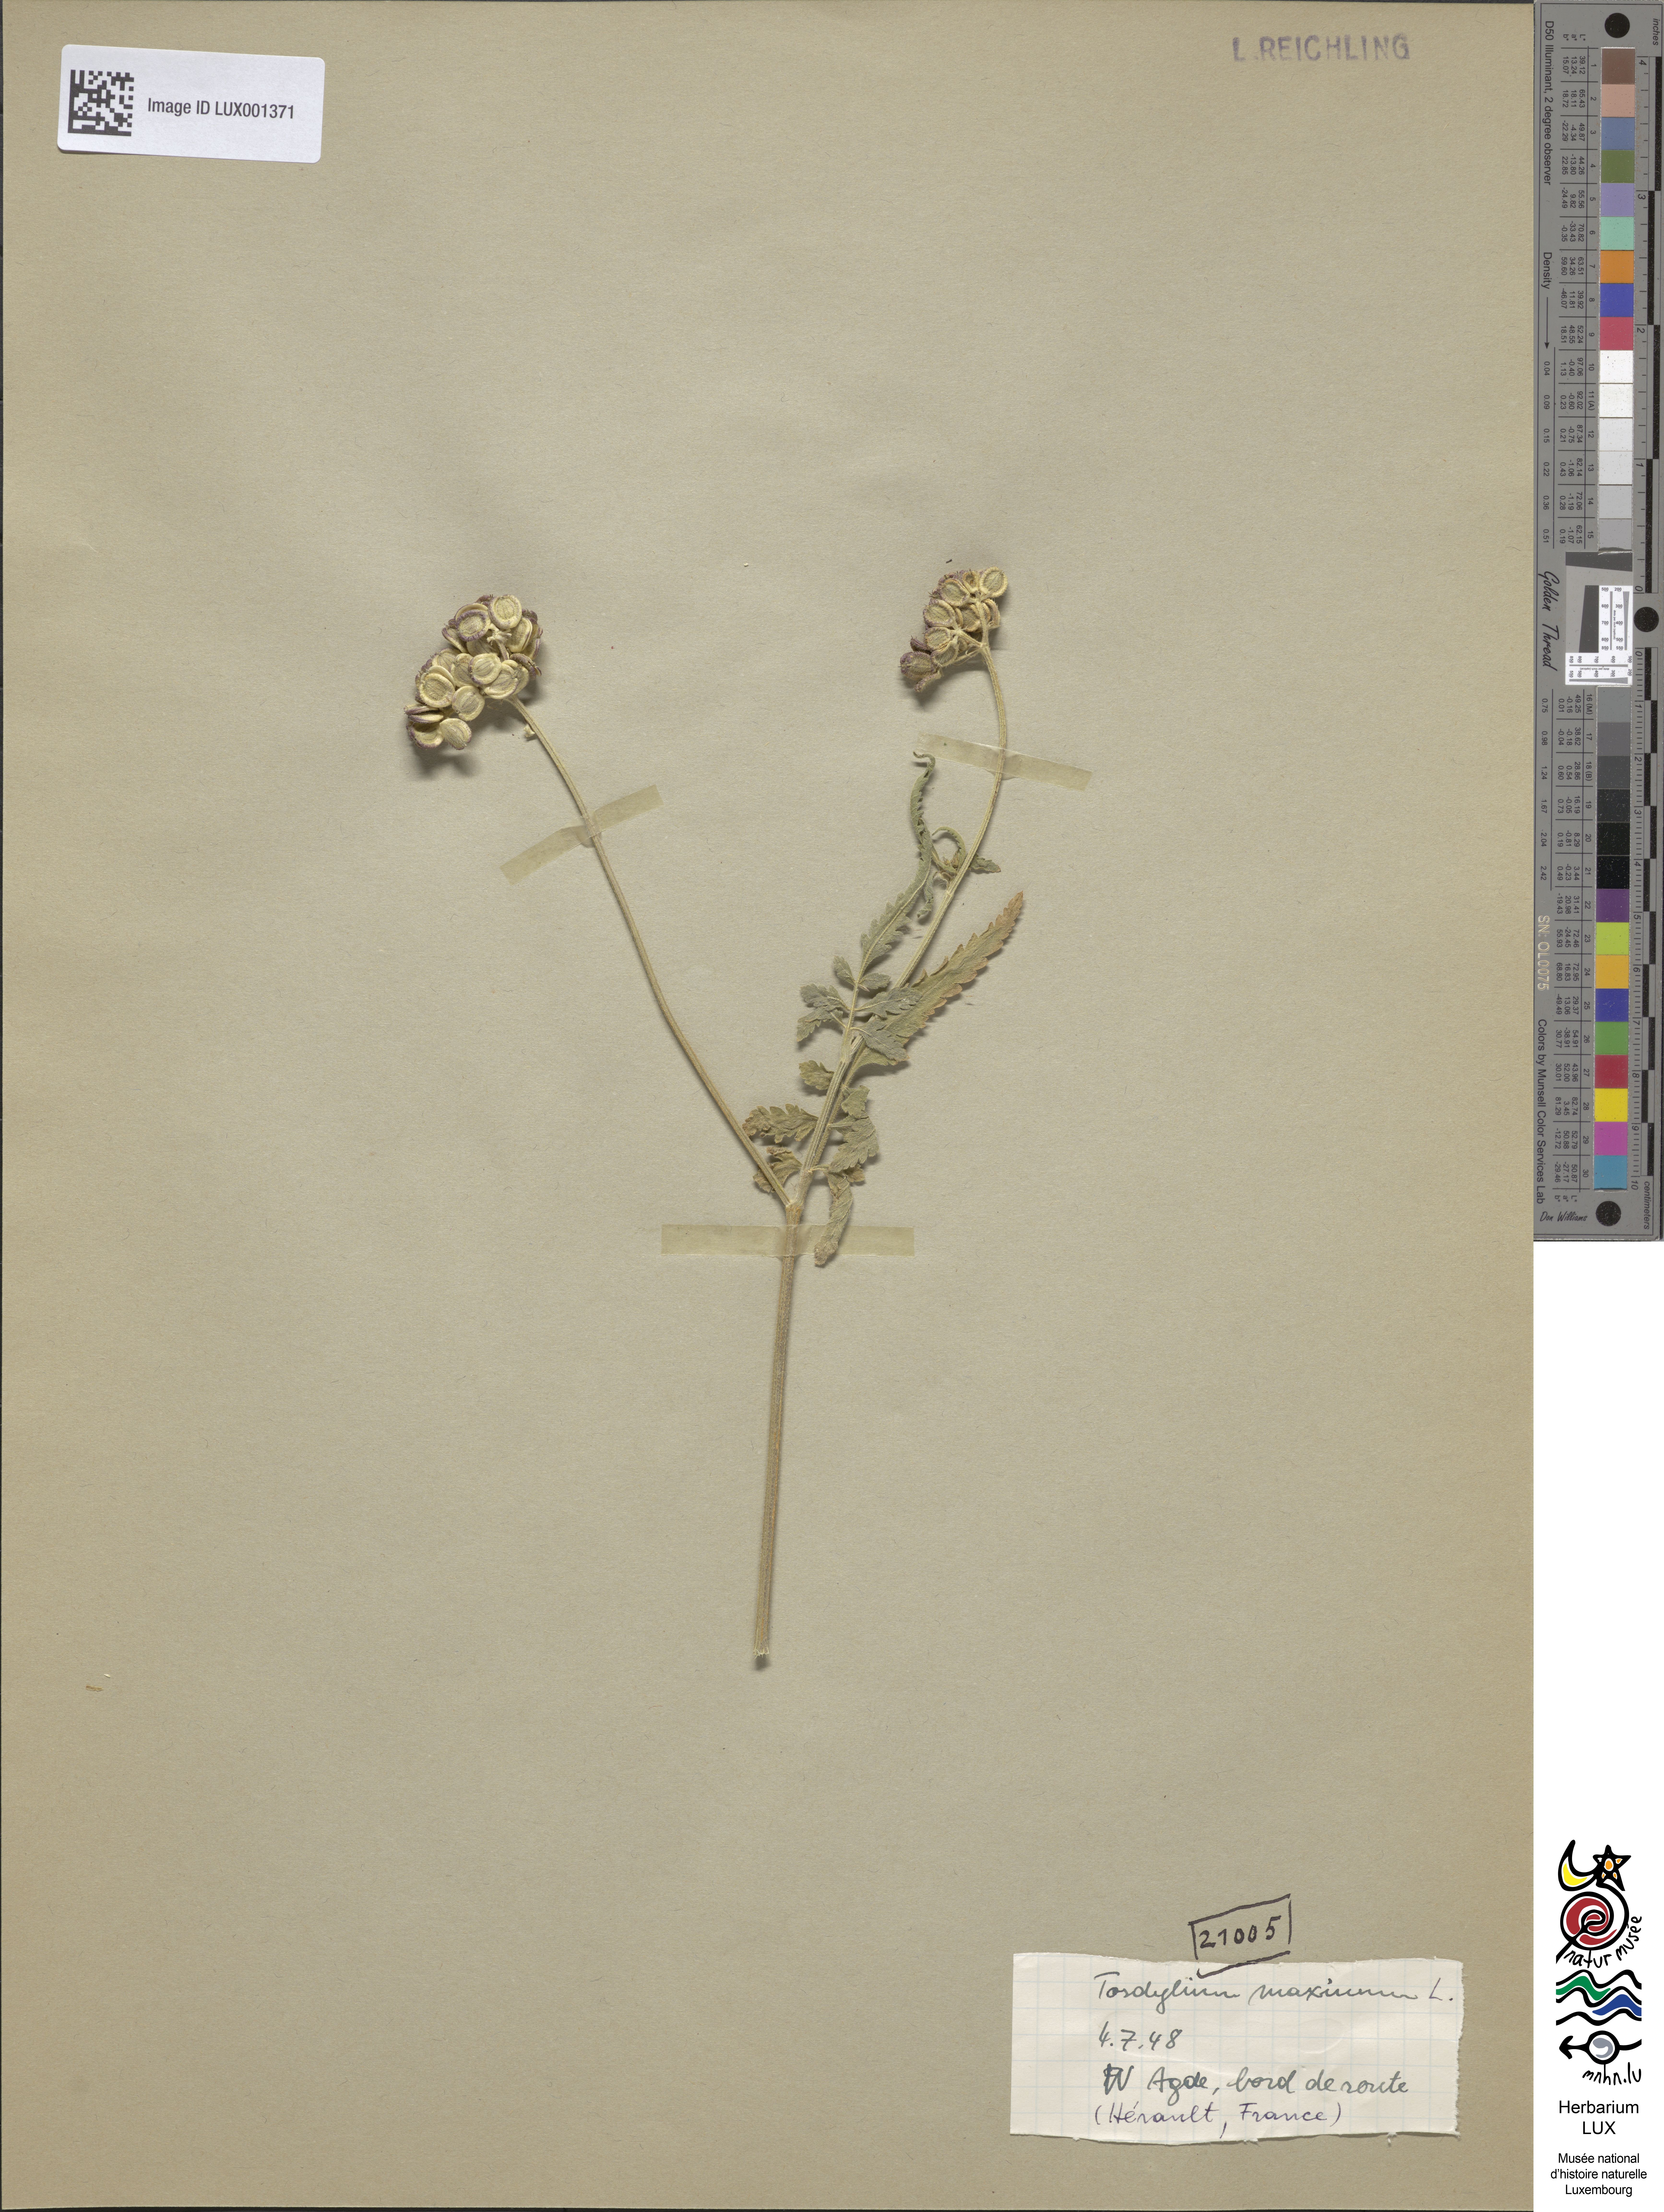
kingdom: Plantae
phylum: Tracheophyta
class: Magnoliopsida
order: Apiales
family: Apiaceae
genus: Tordylium
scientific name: Tordylium maximum
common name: Hartwort
